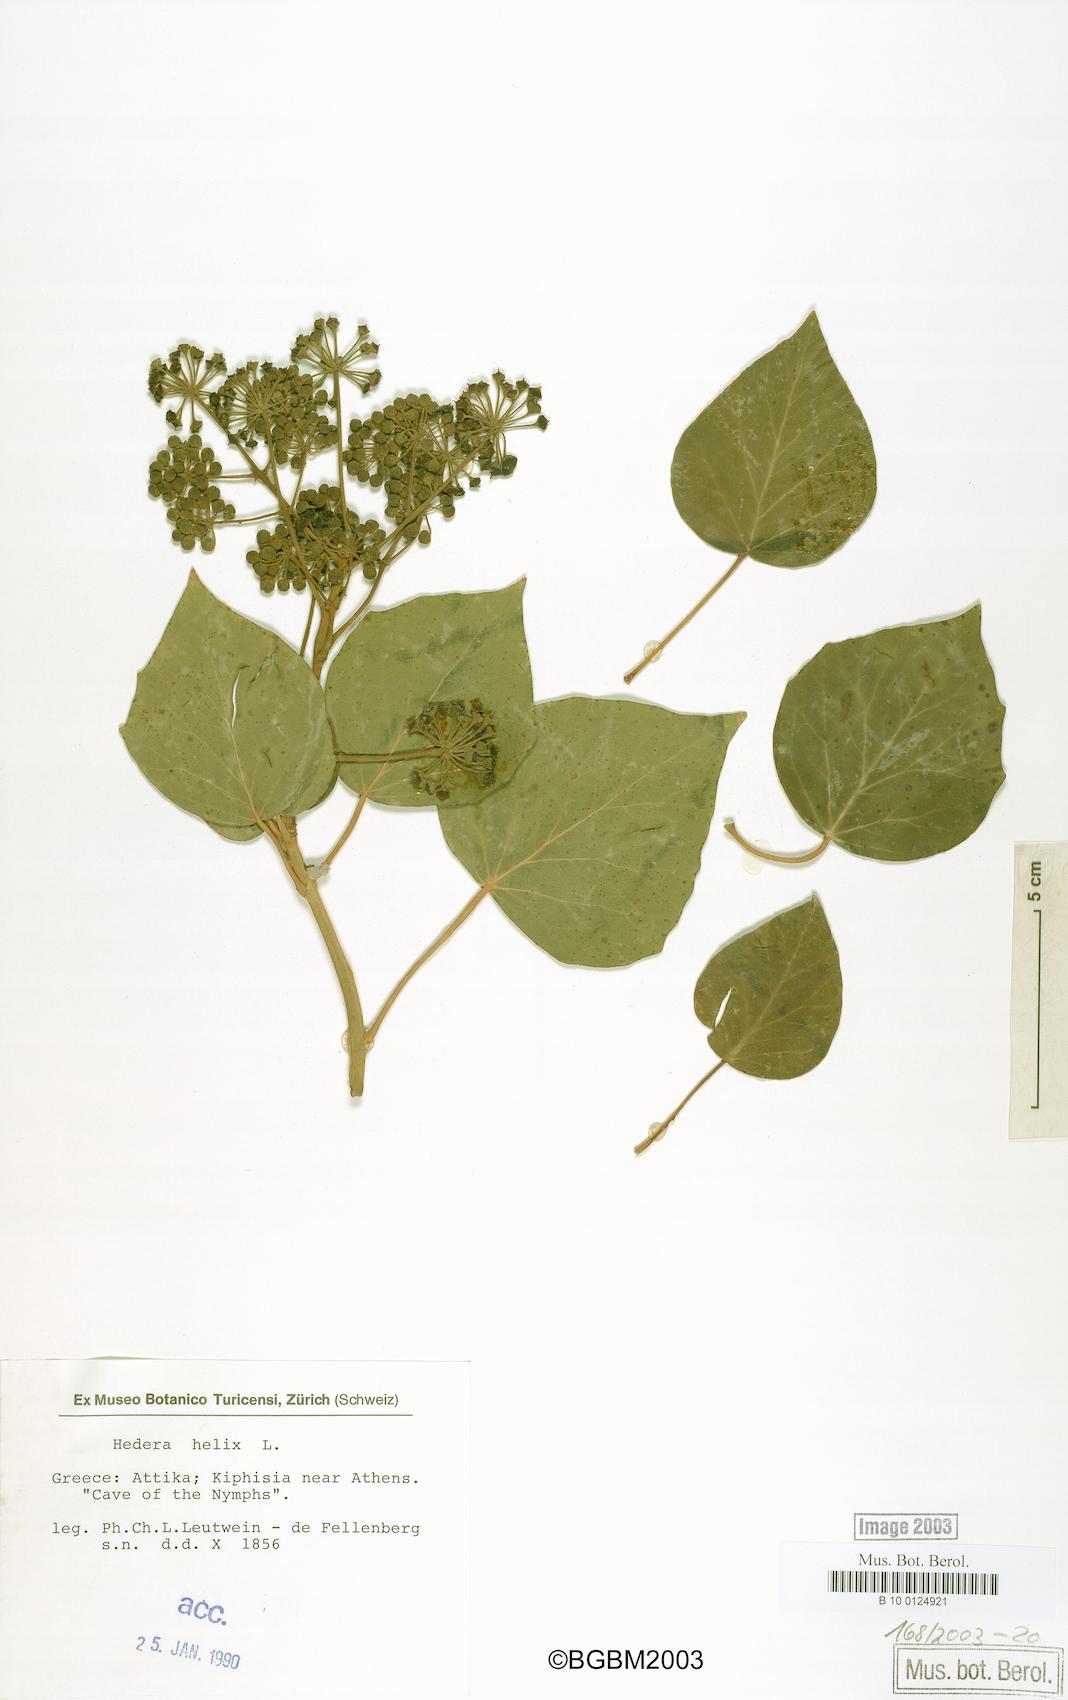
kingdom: Plantae
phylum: Tracheophyta
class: Magnoliopsida
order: Apiales
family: Araliaceae
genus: Hedera
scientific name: Hedera helix
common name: Ivy
